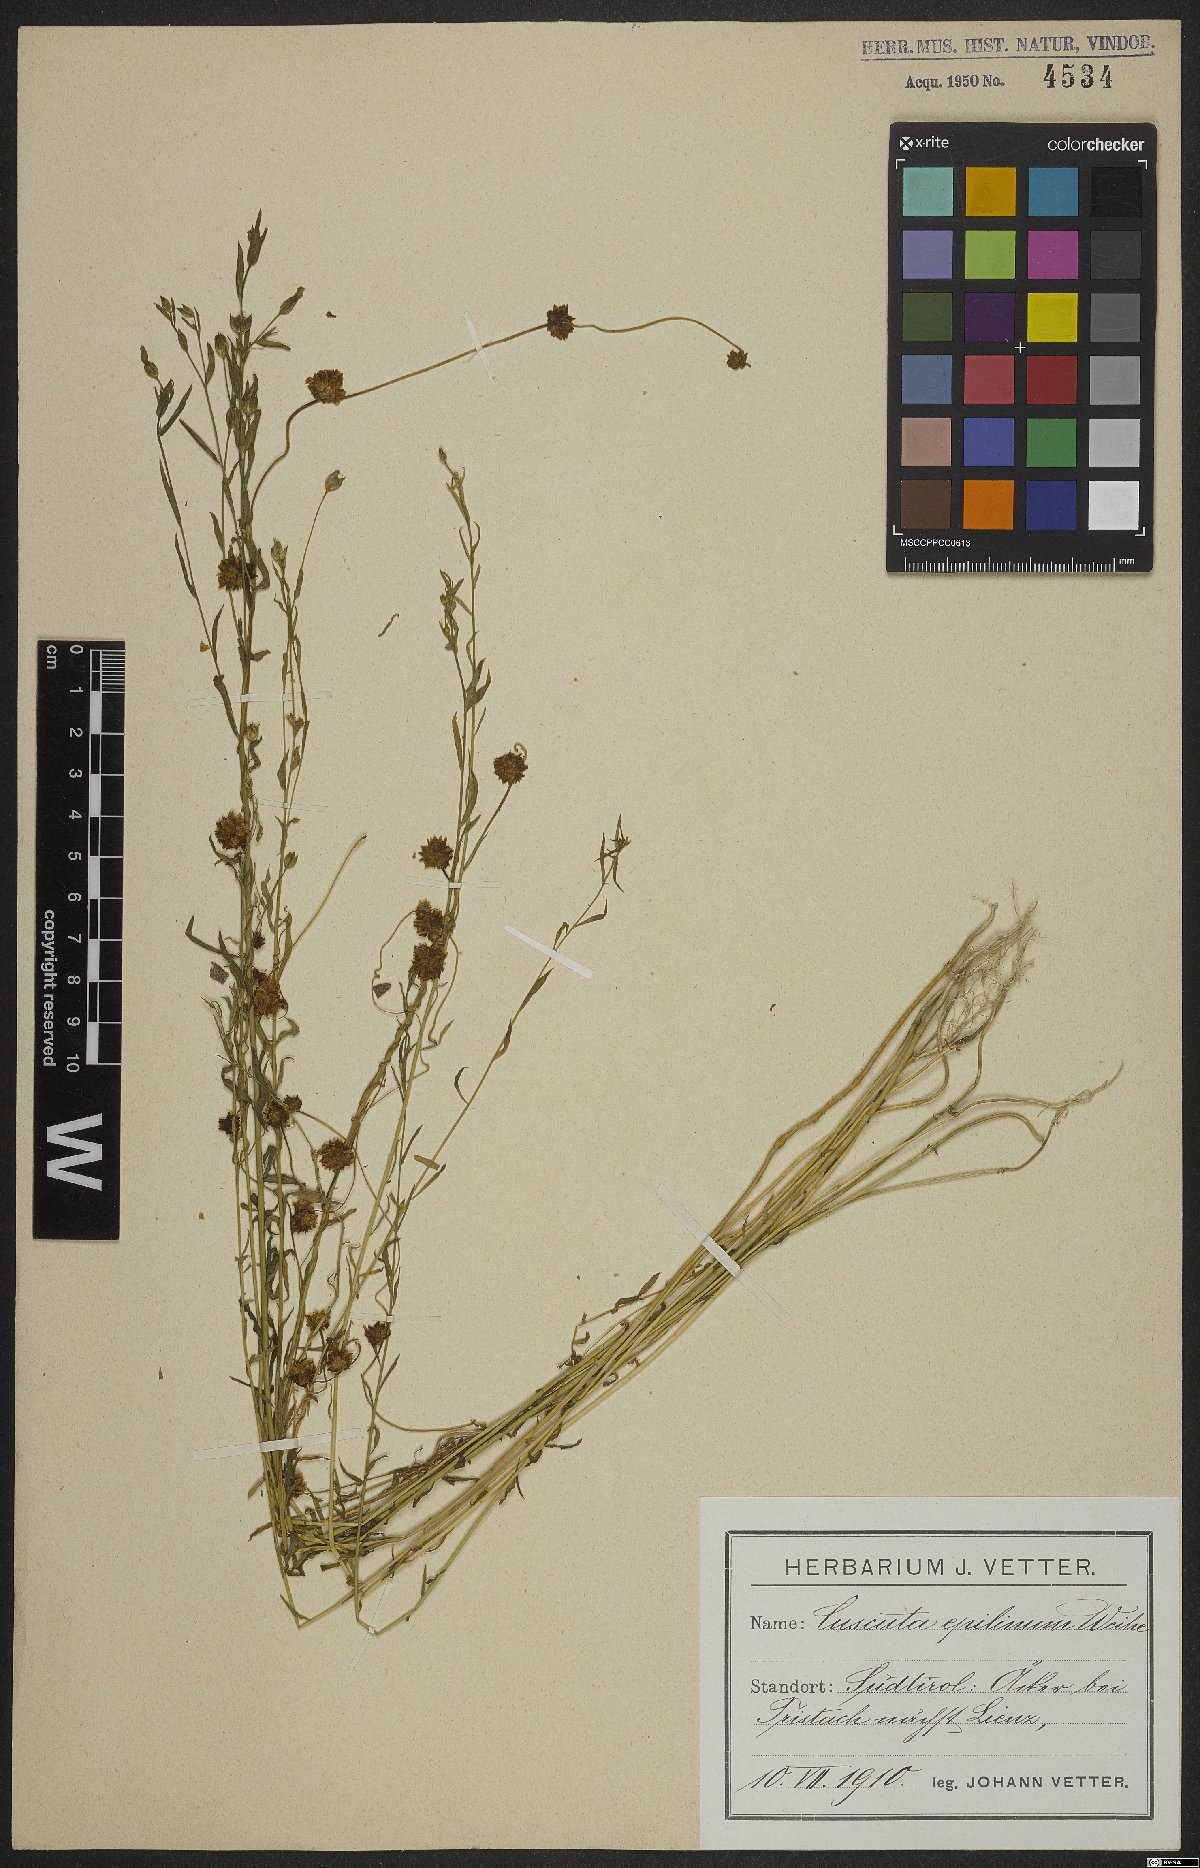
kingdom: Plantae
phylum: Tracheophyta
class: Magnoliopsida
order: Solanales
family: Convolvulaceae
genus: Cuscuta
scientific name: Cuscuta epilinum
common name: Flax dodder
